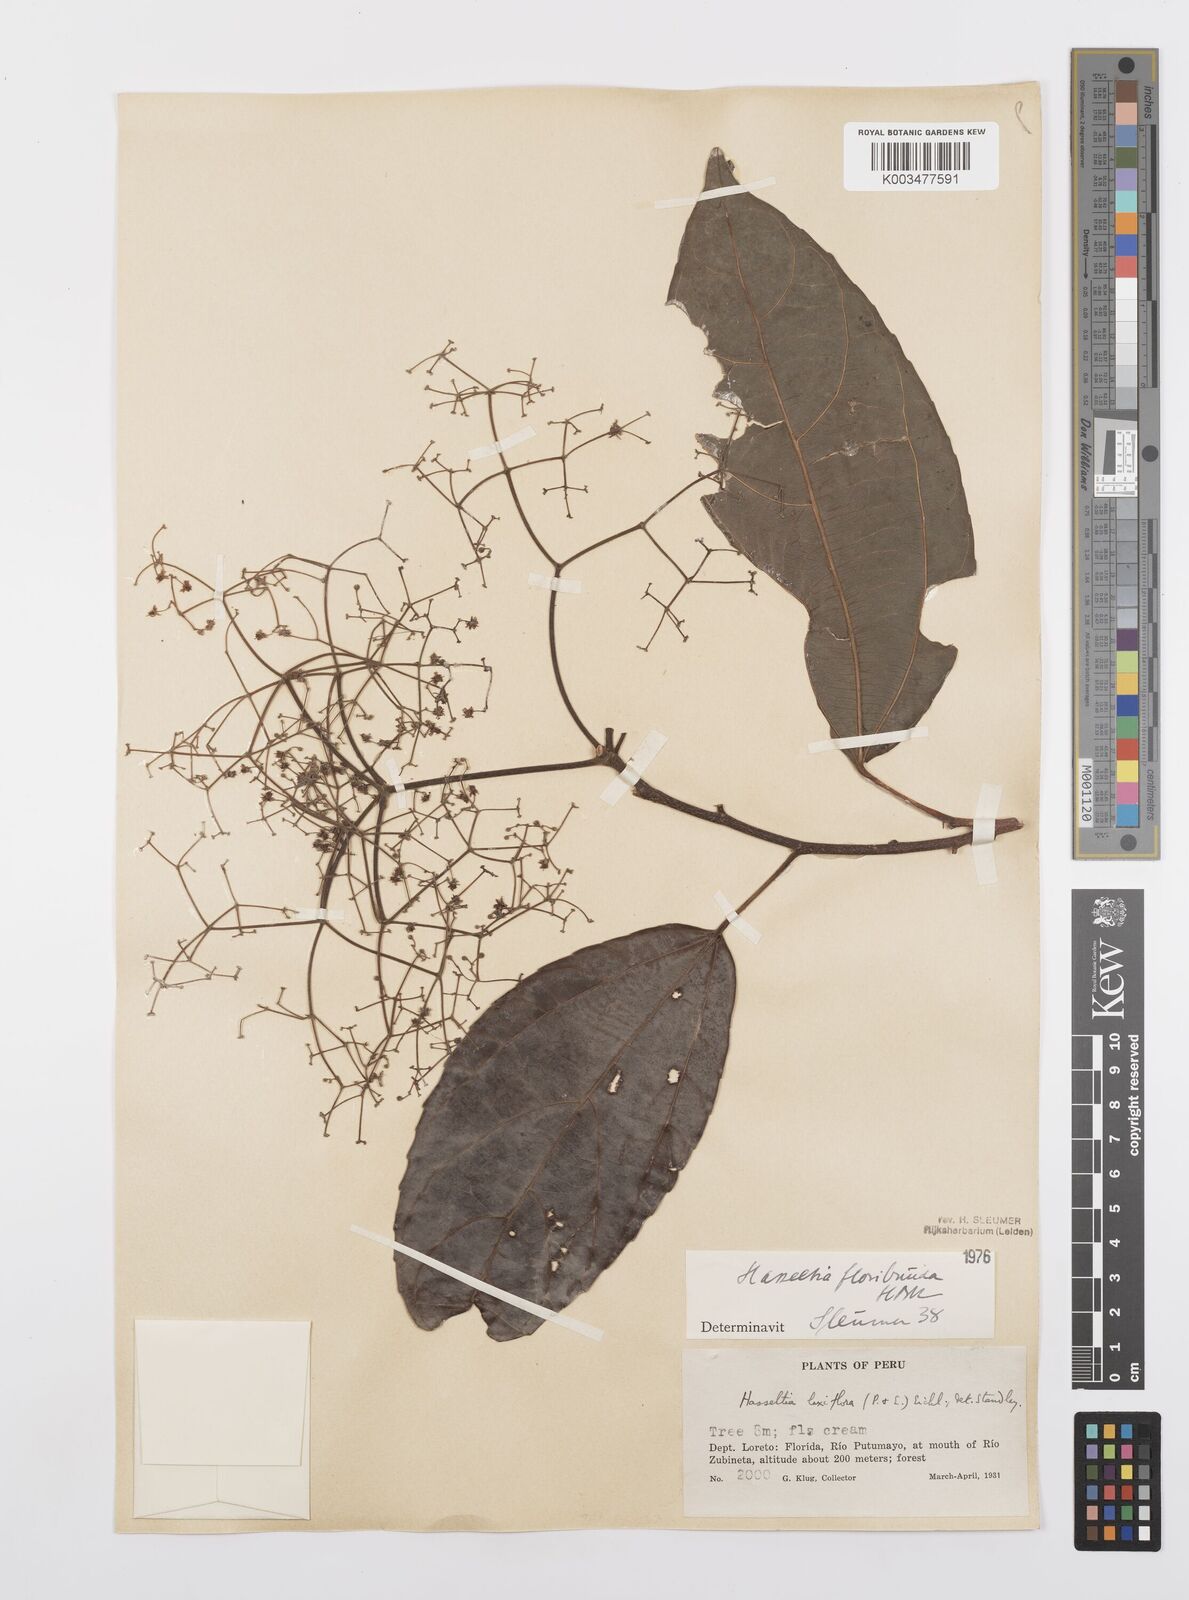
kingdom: Plantae
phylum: Tracheophyta
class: Magnoliopsida
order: Malpighiales
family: Salicaceae
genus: Hasseltia
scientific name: Hasseltia floribunda
